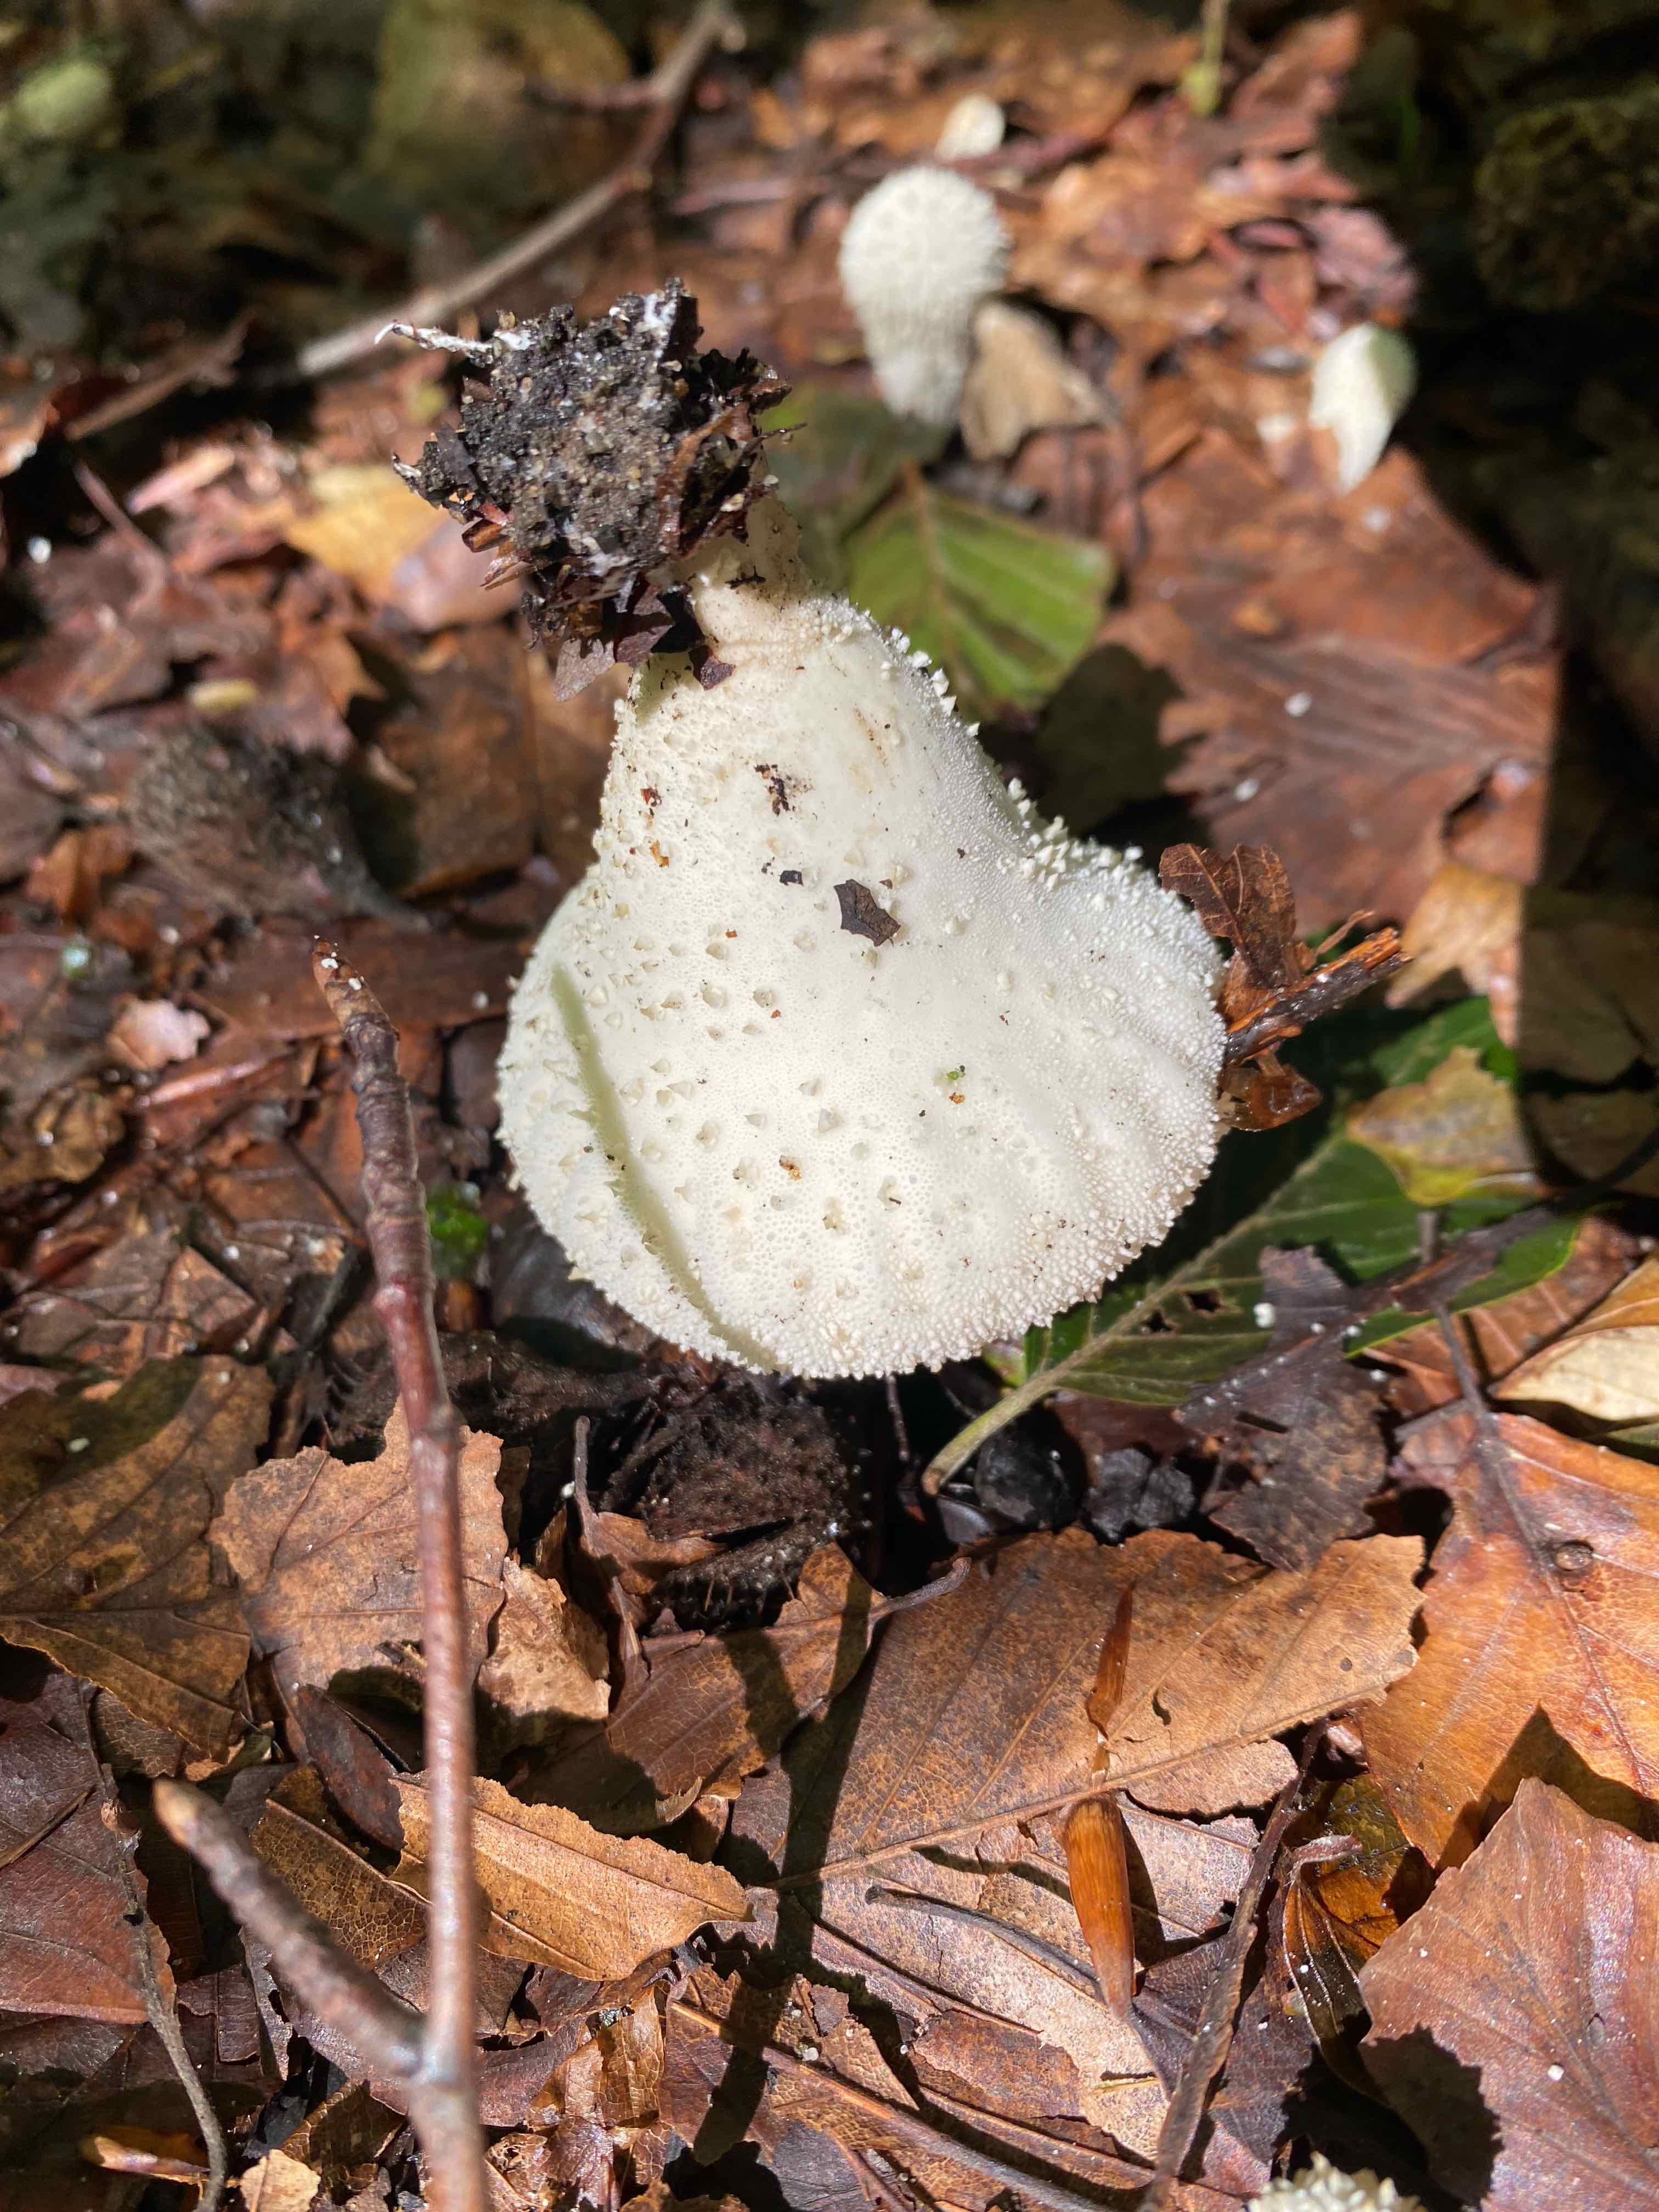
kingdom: Fungi
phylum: Basidiomycota
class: Agaricomycetes
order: Agaricales
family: Lycoperdaceae
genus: Lycoperdon
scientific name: Lycoperdon perlatum
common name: krystal-støvbold
